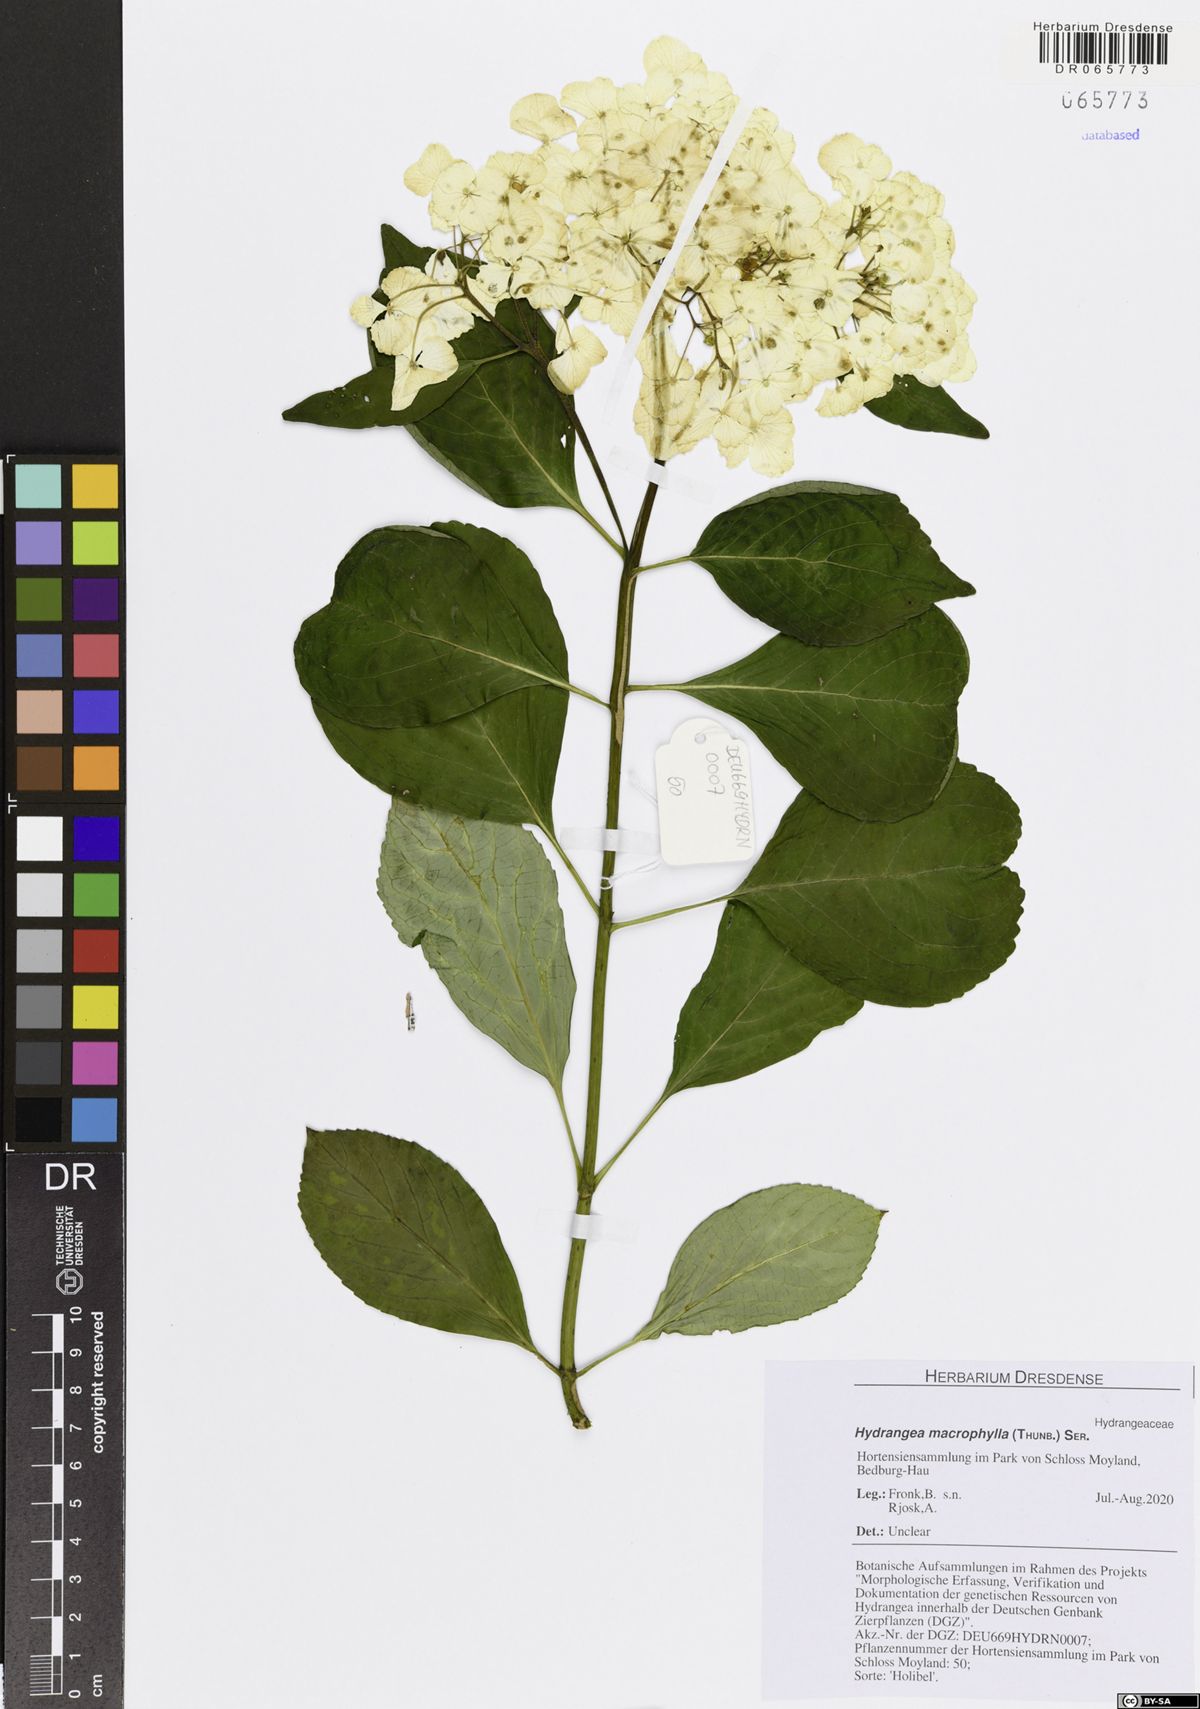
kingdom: Plantae
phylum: Tracheophyta
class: Magnoliopsida
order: Cornales
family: Hydrangeaceae
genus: Hydrangea
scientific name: Hydrangea macrophylla
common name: Hydrangea
